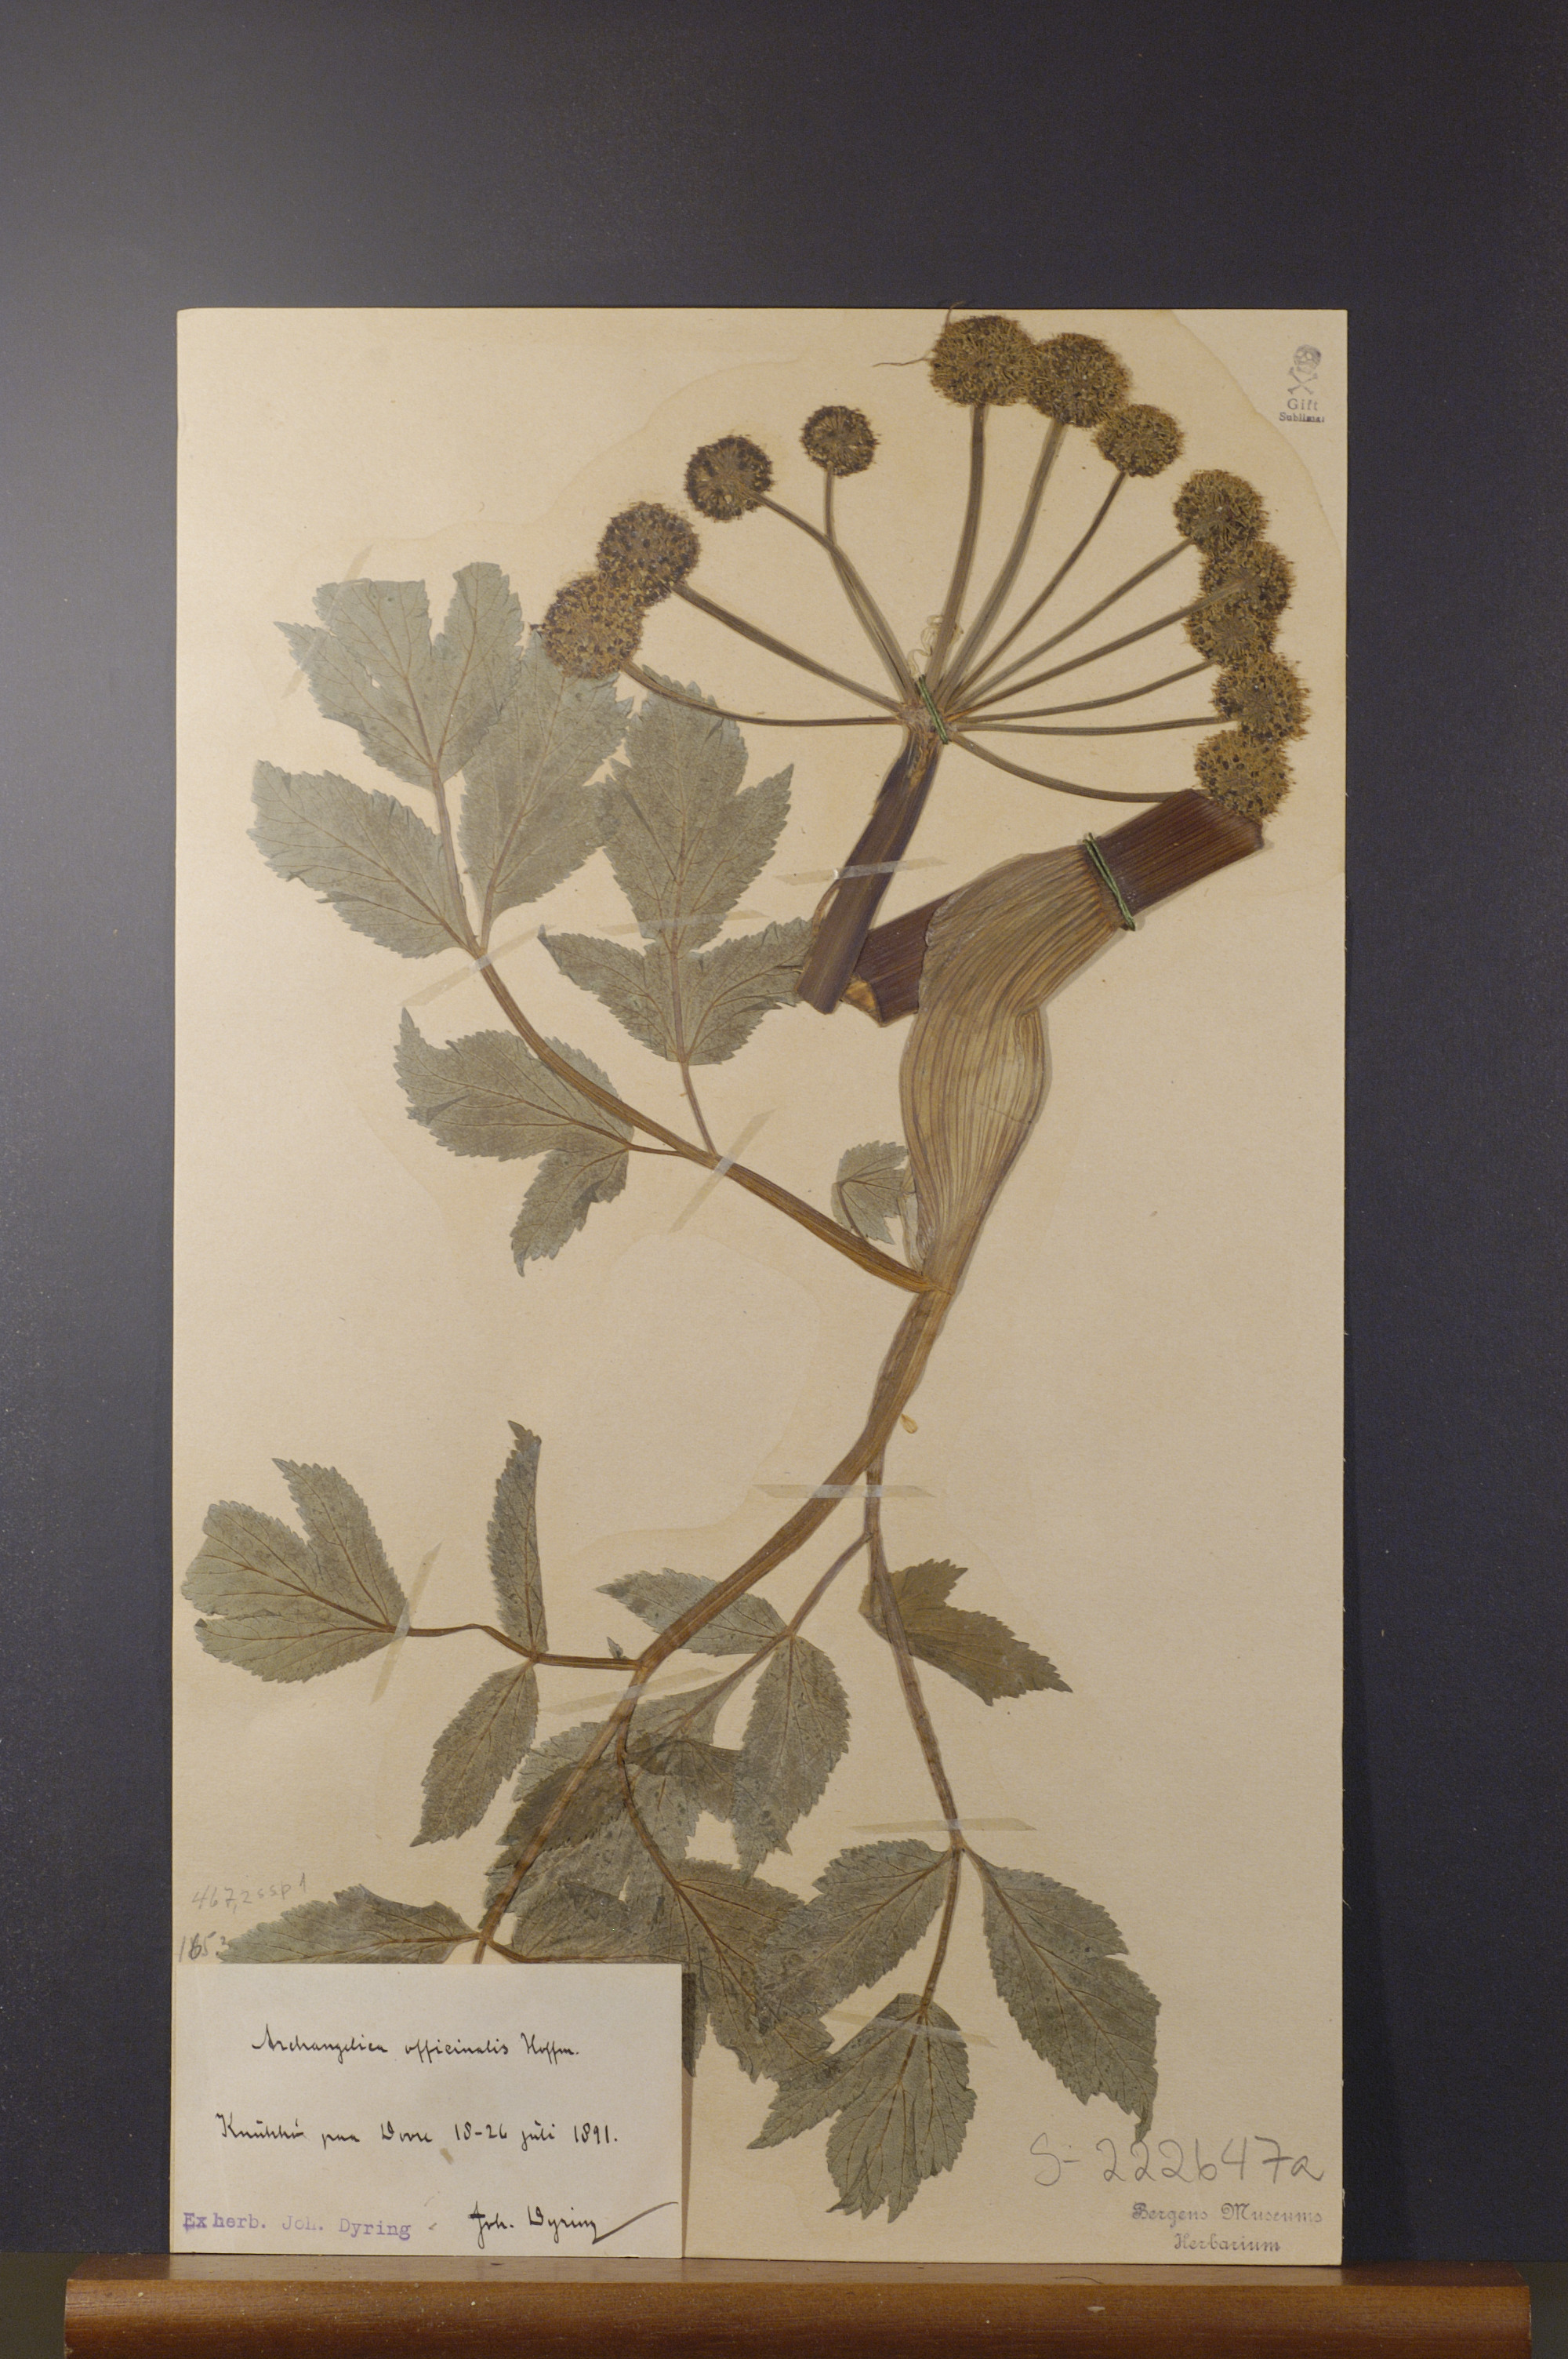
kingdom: Plantae
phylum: Tracheophyta
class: Magnoliopsida
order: Apiales
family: Apiaceae
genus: Angelica
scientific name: Angelica archangelica
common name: Garden angelica
